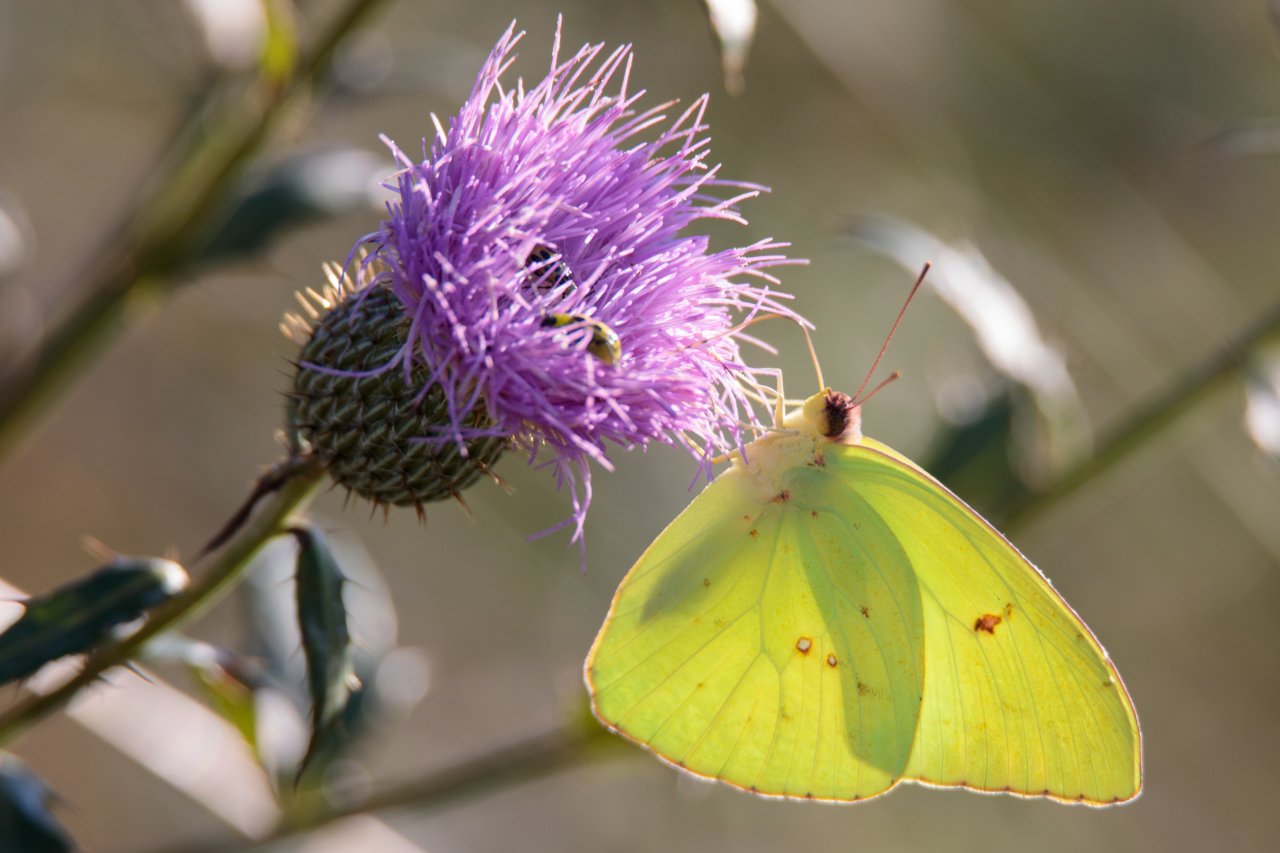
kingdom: Animalia
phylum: Arthropoda
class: Insecta
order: Lepidoptera
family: Pieridae
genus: Phoebis
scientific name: Phoebis sennae
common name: Cloudless Sulphur
